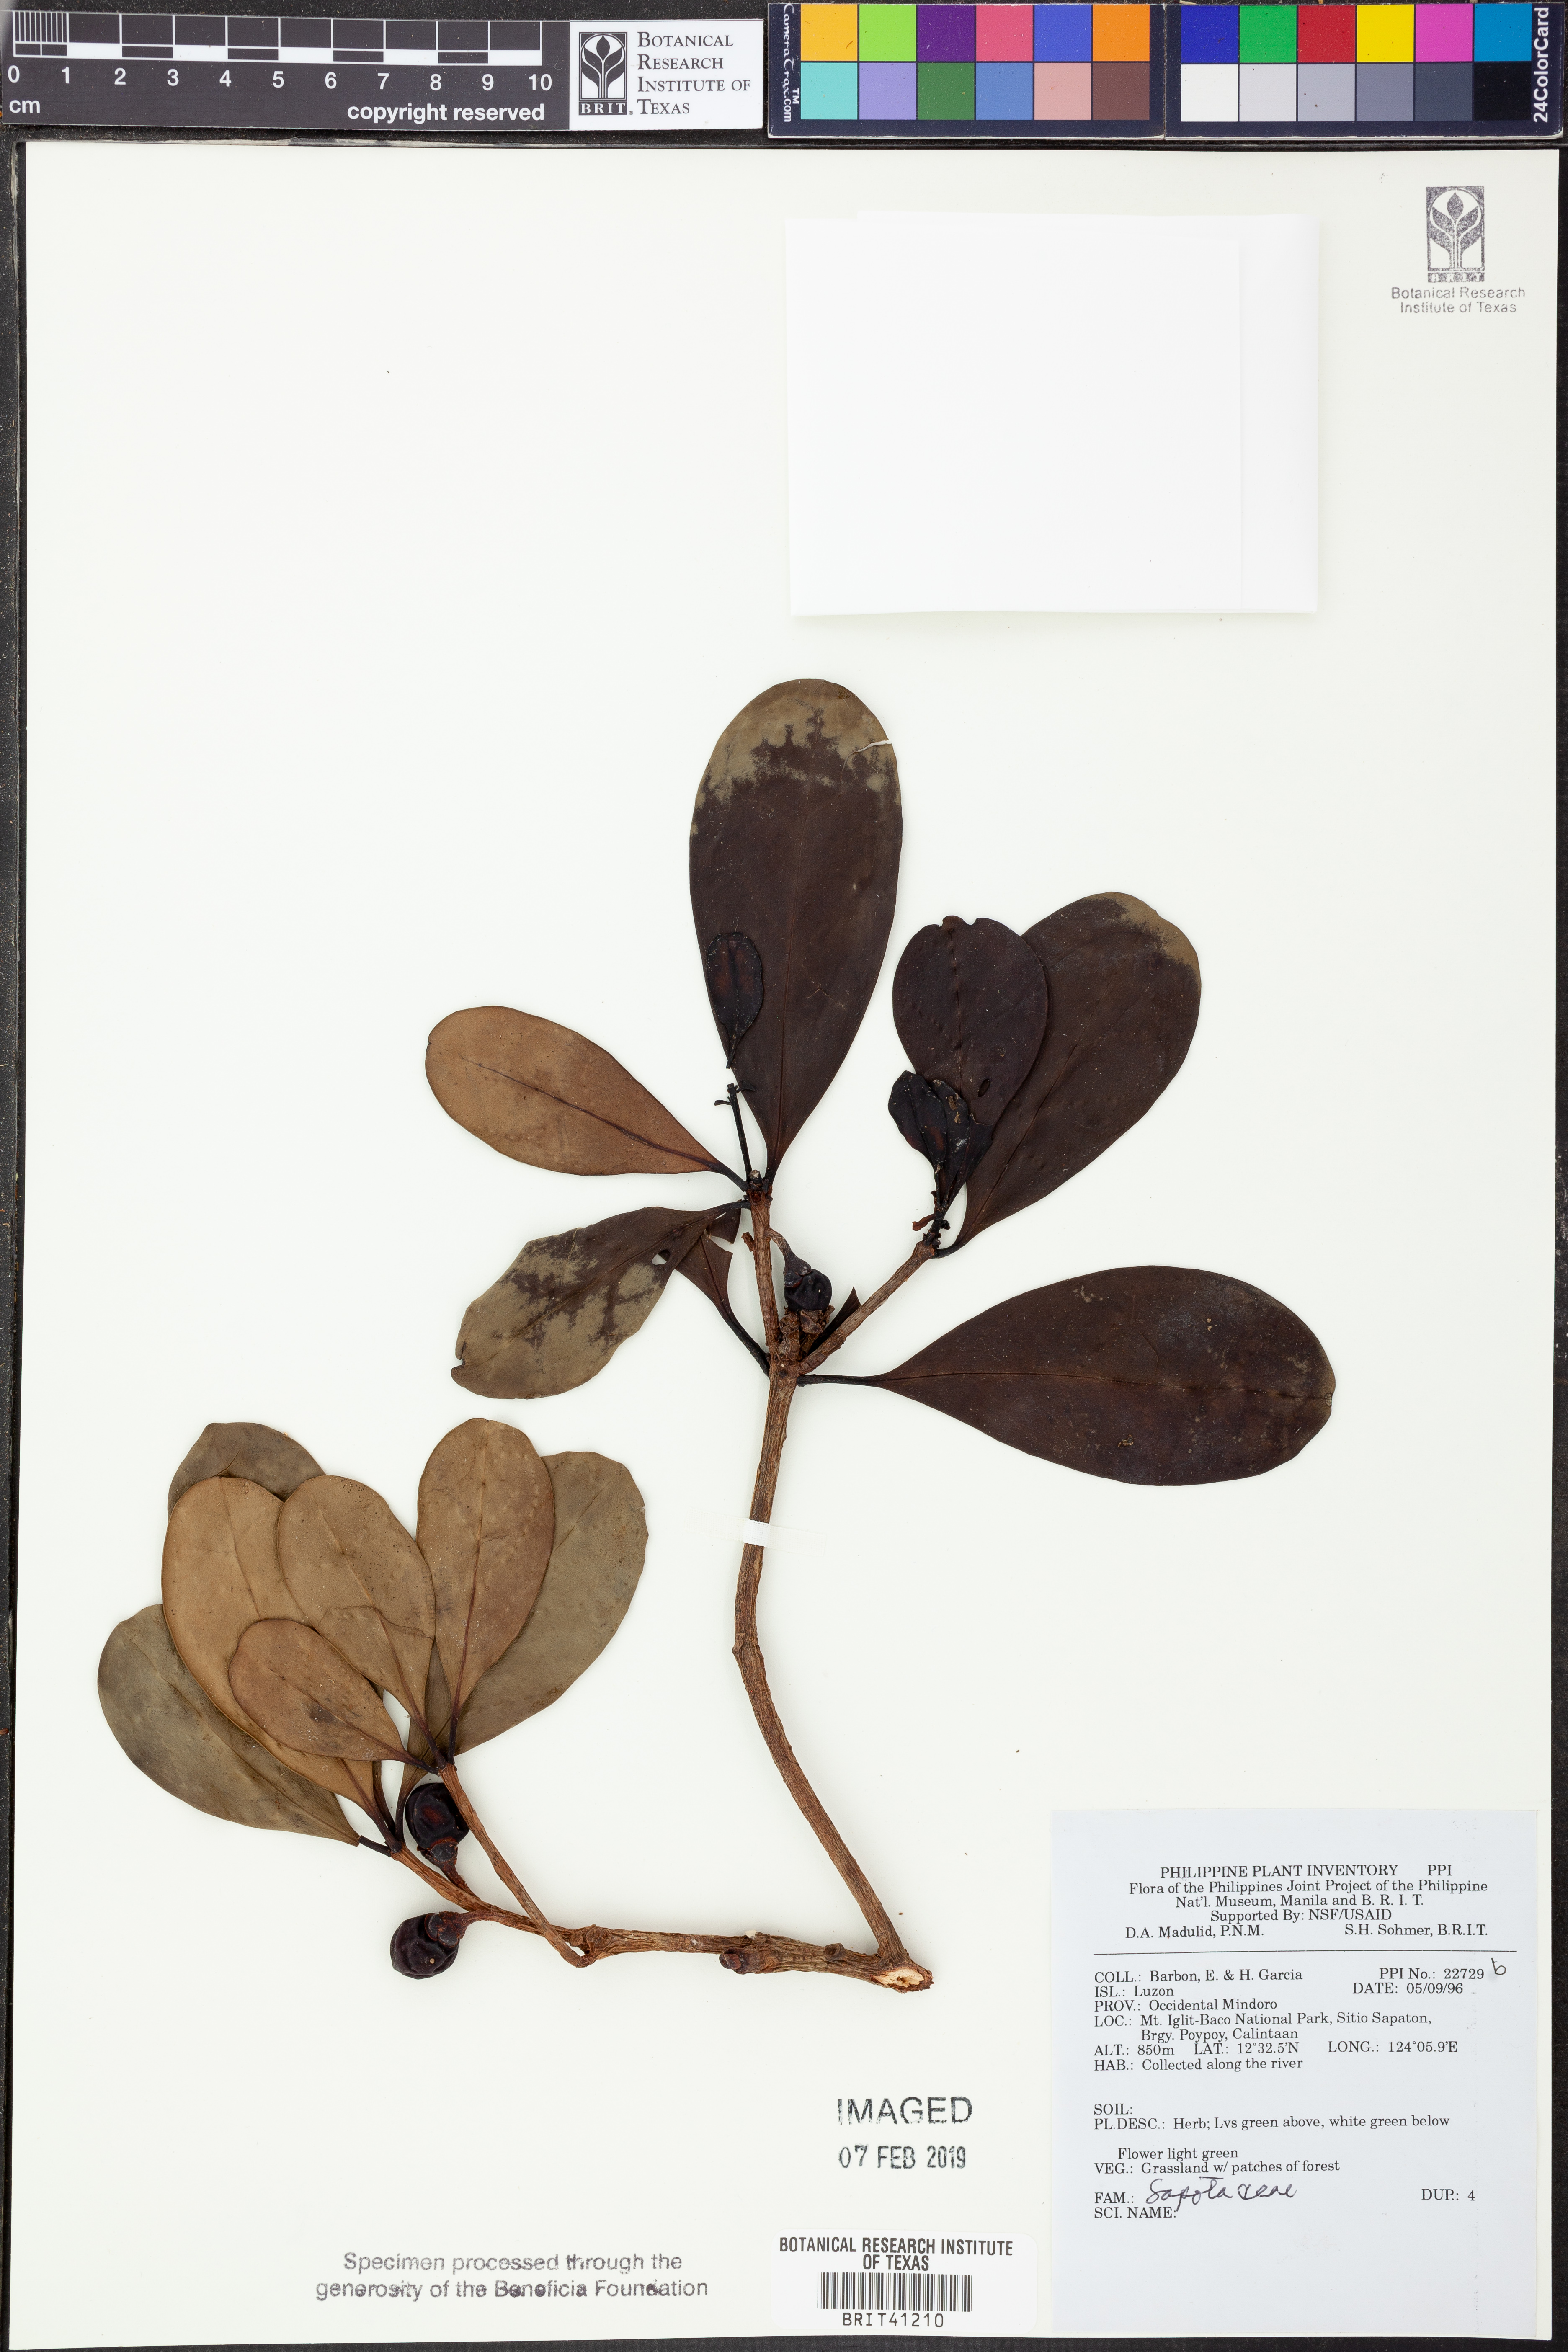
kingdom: Plantae
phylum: Tracheophyta
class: Magnoliopsida
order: Ericales
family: Sapotaceae
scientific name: Sapotaceae
